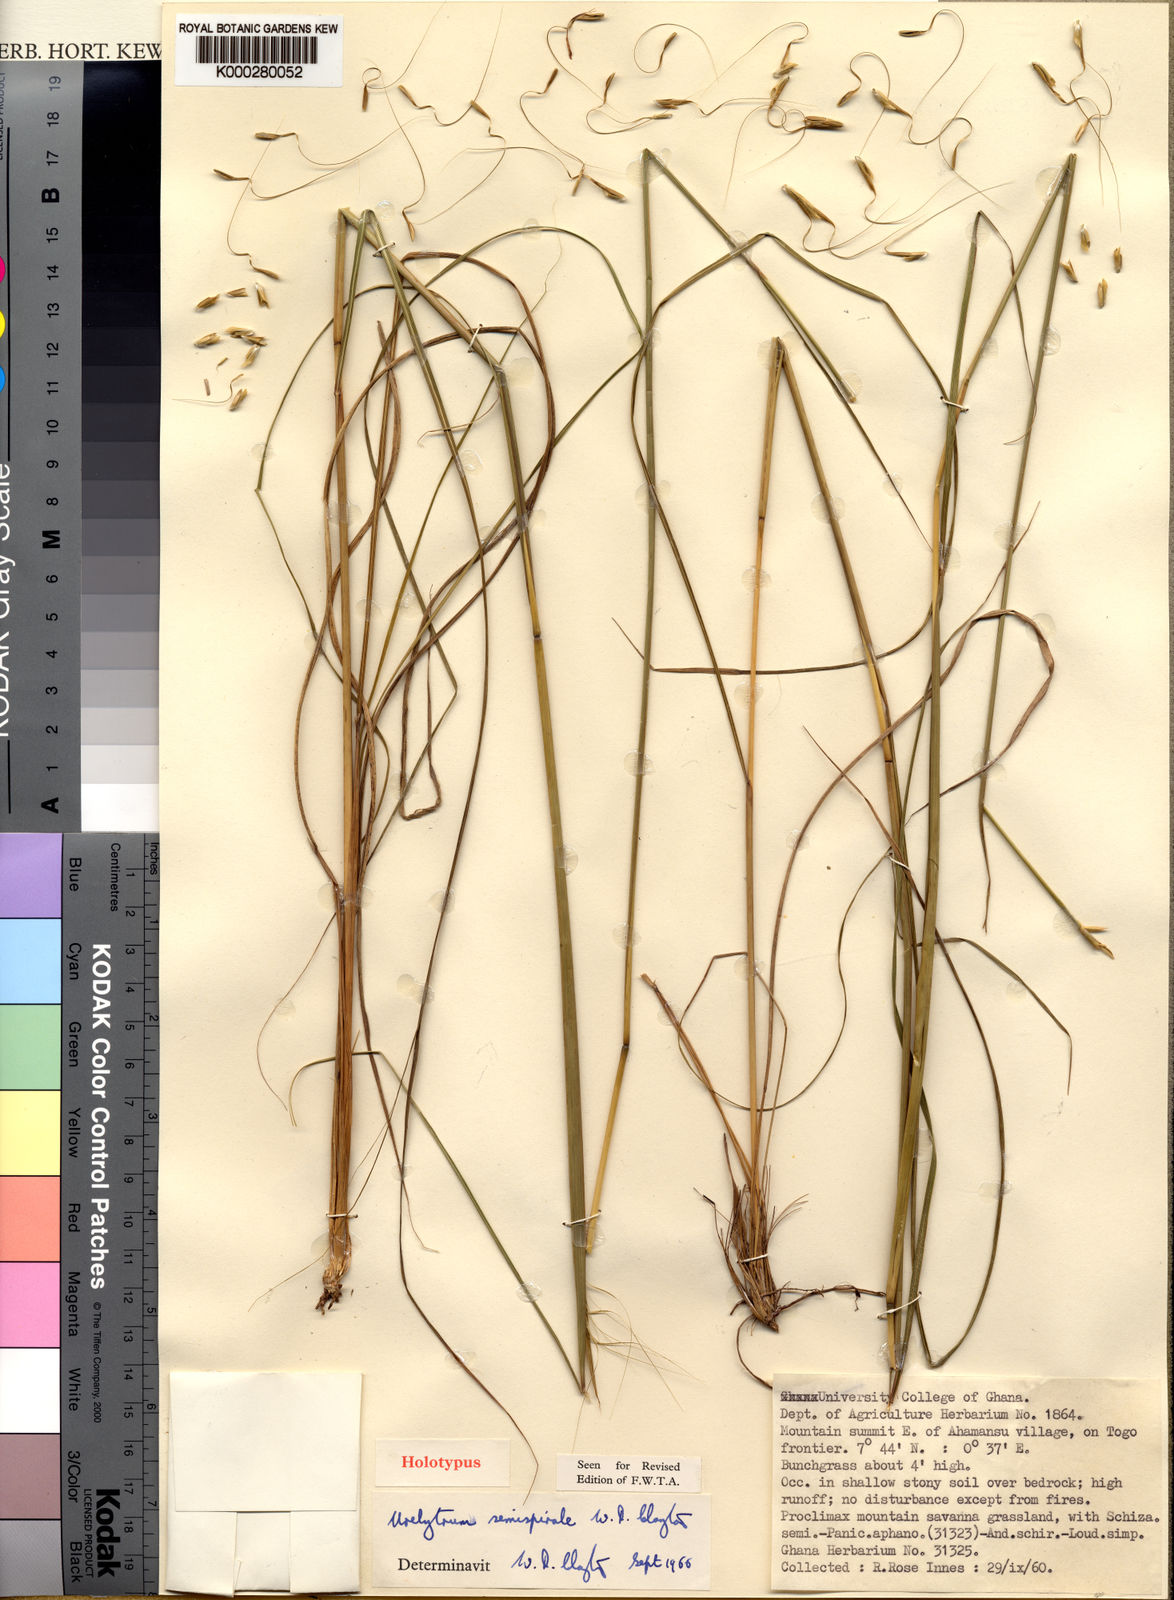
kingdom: Plantae
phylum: Tracheophyta
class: Liliopsida
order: Poales
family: Poaceae
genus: Urelytrum
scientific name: Urelytrum agropyroides
